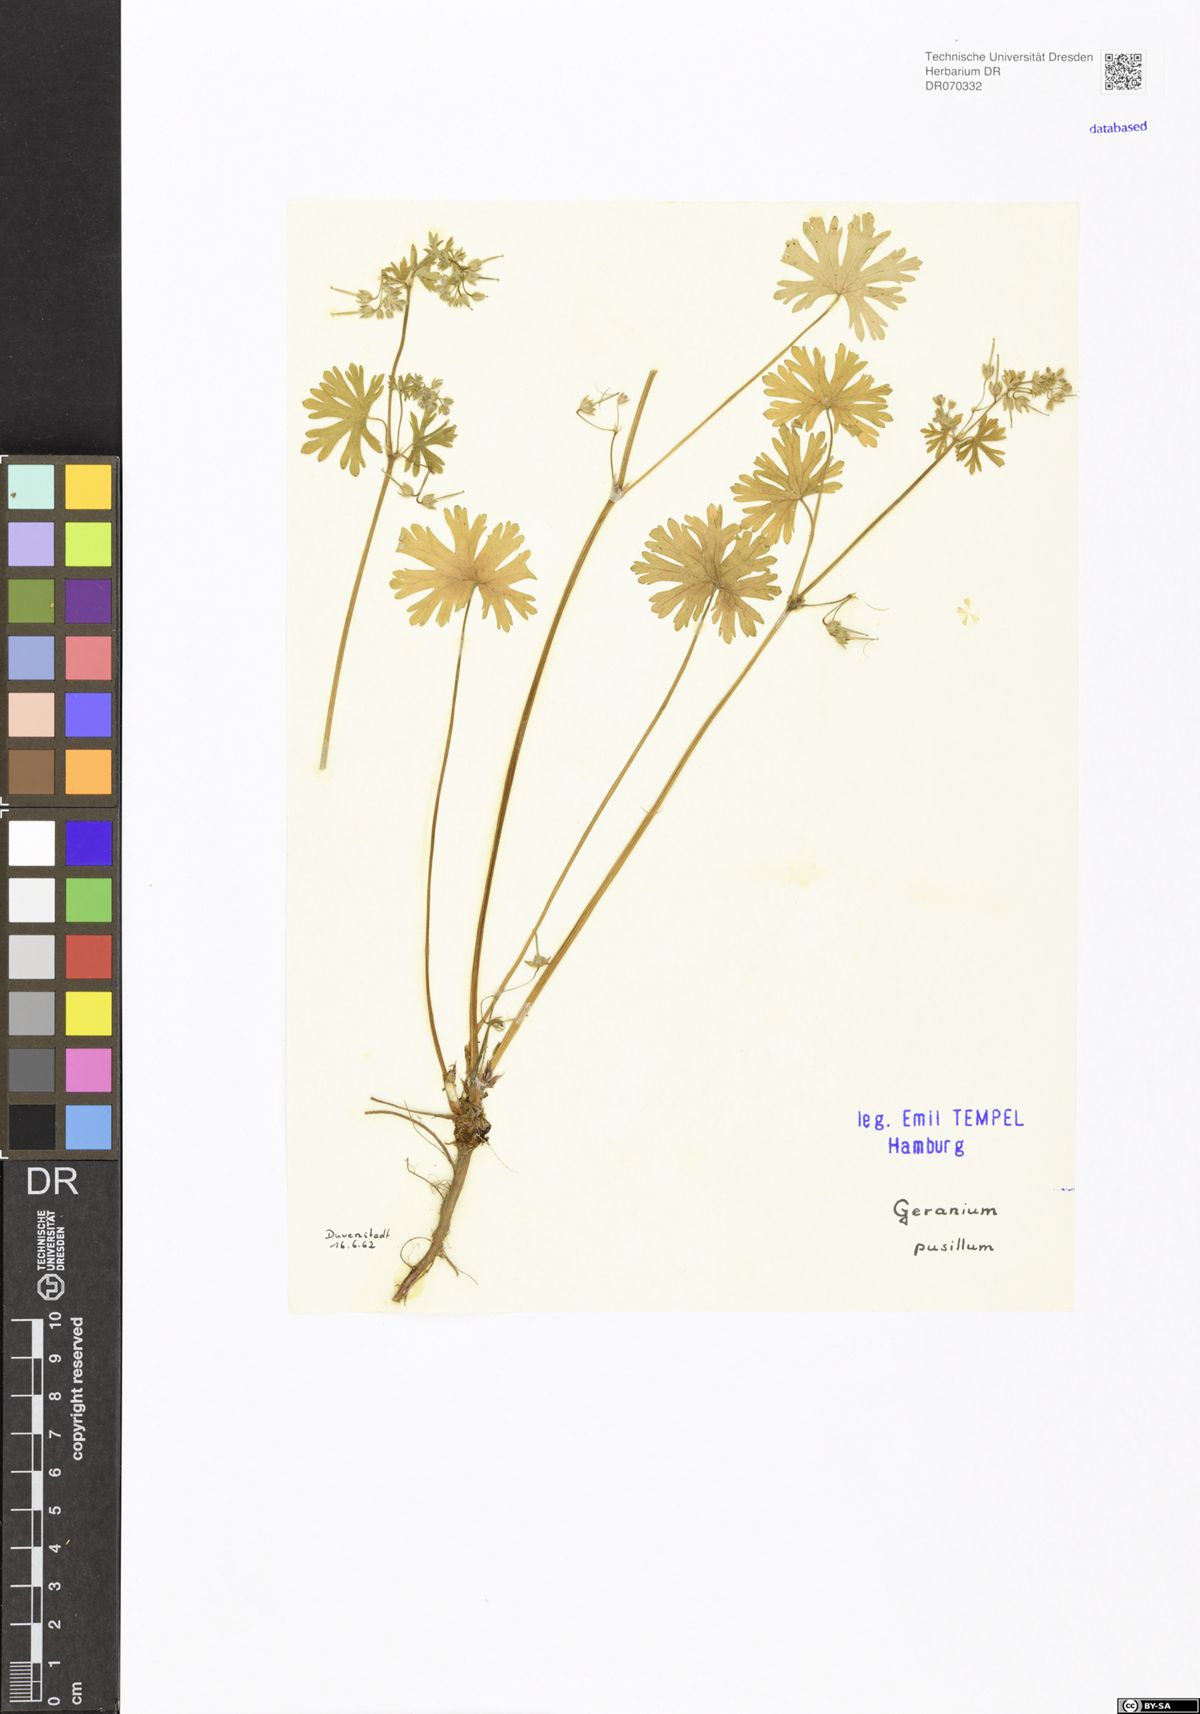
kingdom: Plantae
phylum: Tracheophyta
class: Magnoliopsida
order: Geraniales
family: Geraniaceae
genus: Geranium
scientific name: Geranium pusillum
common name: Small geranium
